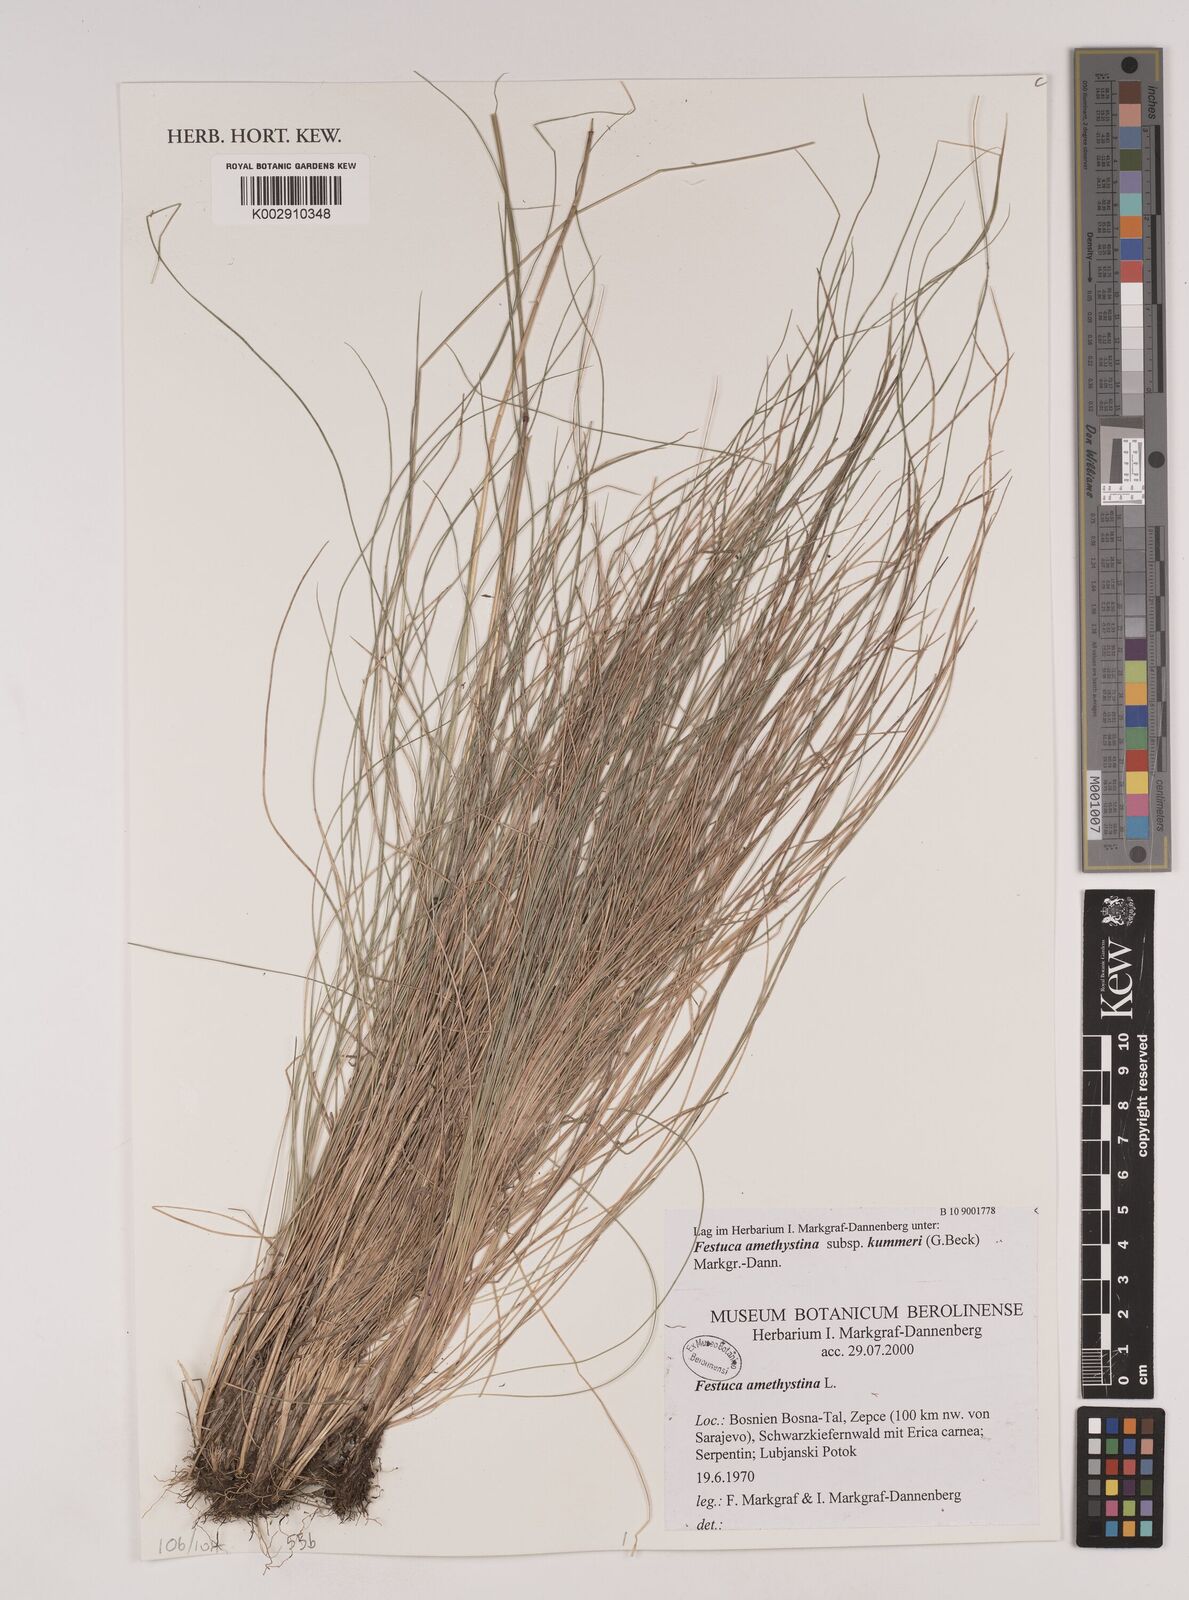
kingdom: Plantae
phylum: Tracheophyta
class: Liliopsida
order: Poales
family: Poaceae
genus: Festuca
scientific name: Festuca amethystina
